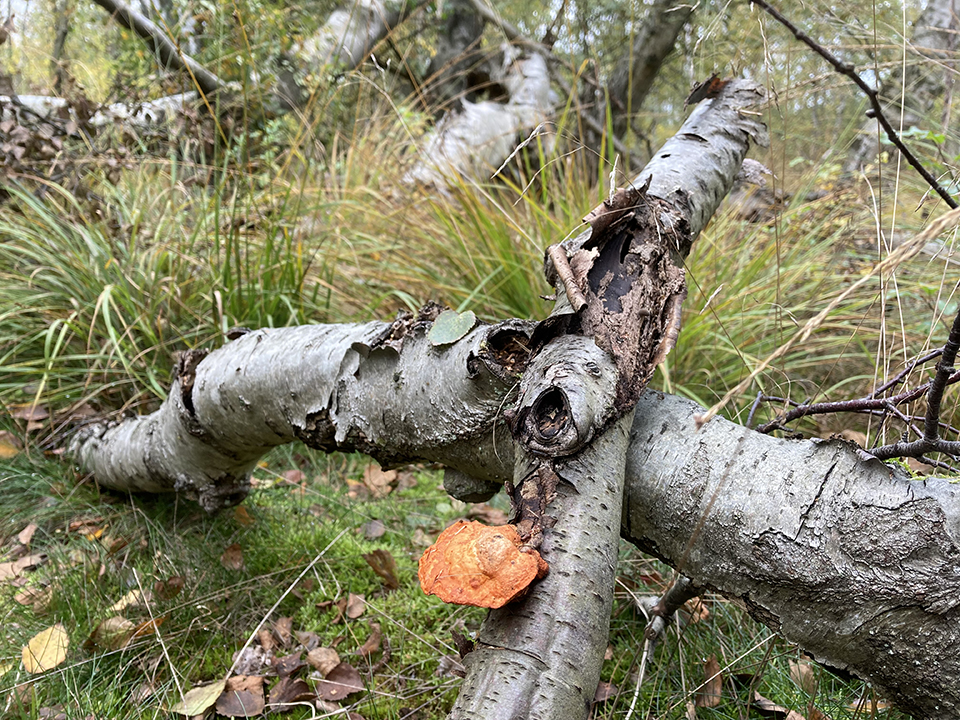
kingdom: Fungi
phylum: Basidiomycota
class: Agaricomycetes
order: Polyporales
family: Polyporaceae
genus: Trametes
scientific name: Trametes cinnabarina
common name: cinnoberporesvamp
